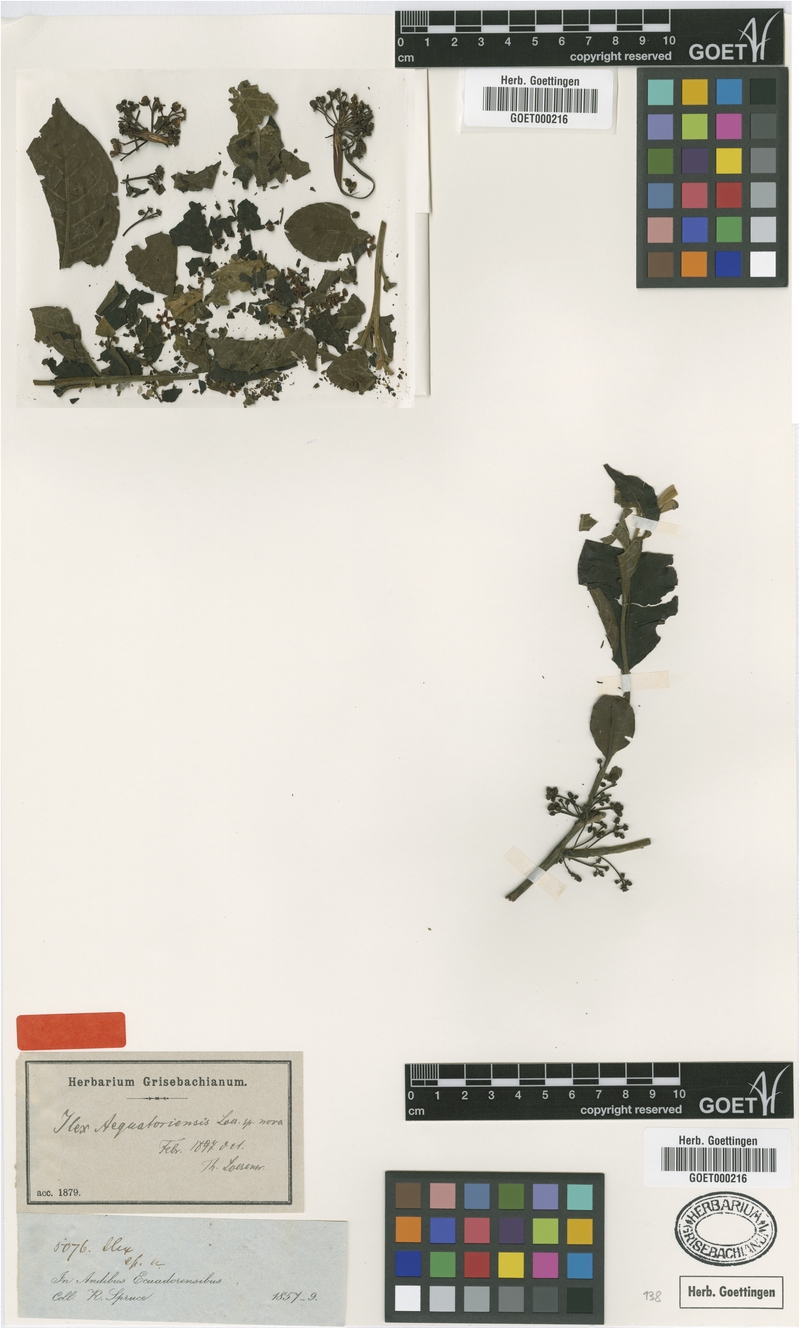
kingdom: Plantae
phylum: Tracheophyta
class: Magnoliopsida
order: Aquifoliales
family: Aquifoliaceae
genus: Ilex
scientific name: Ilex nervosa
